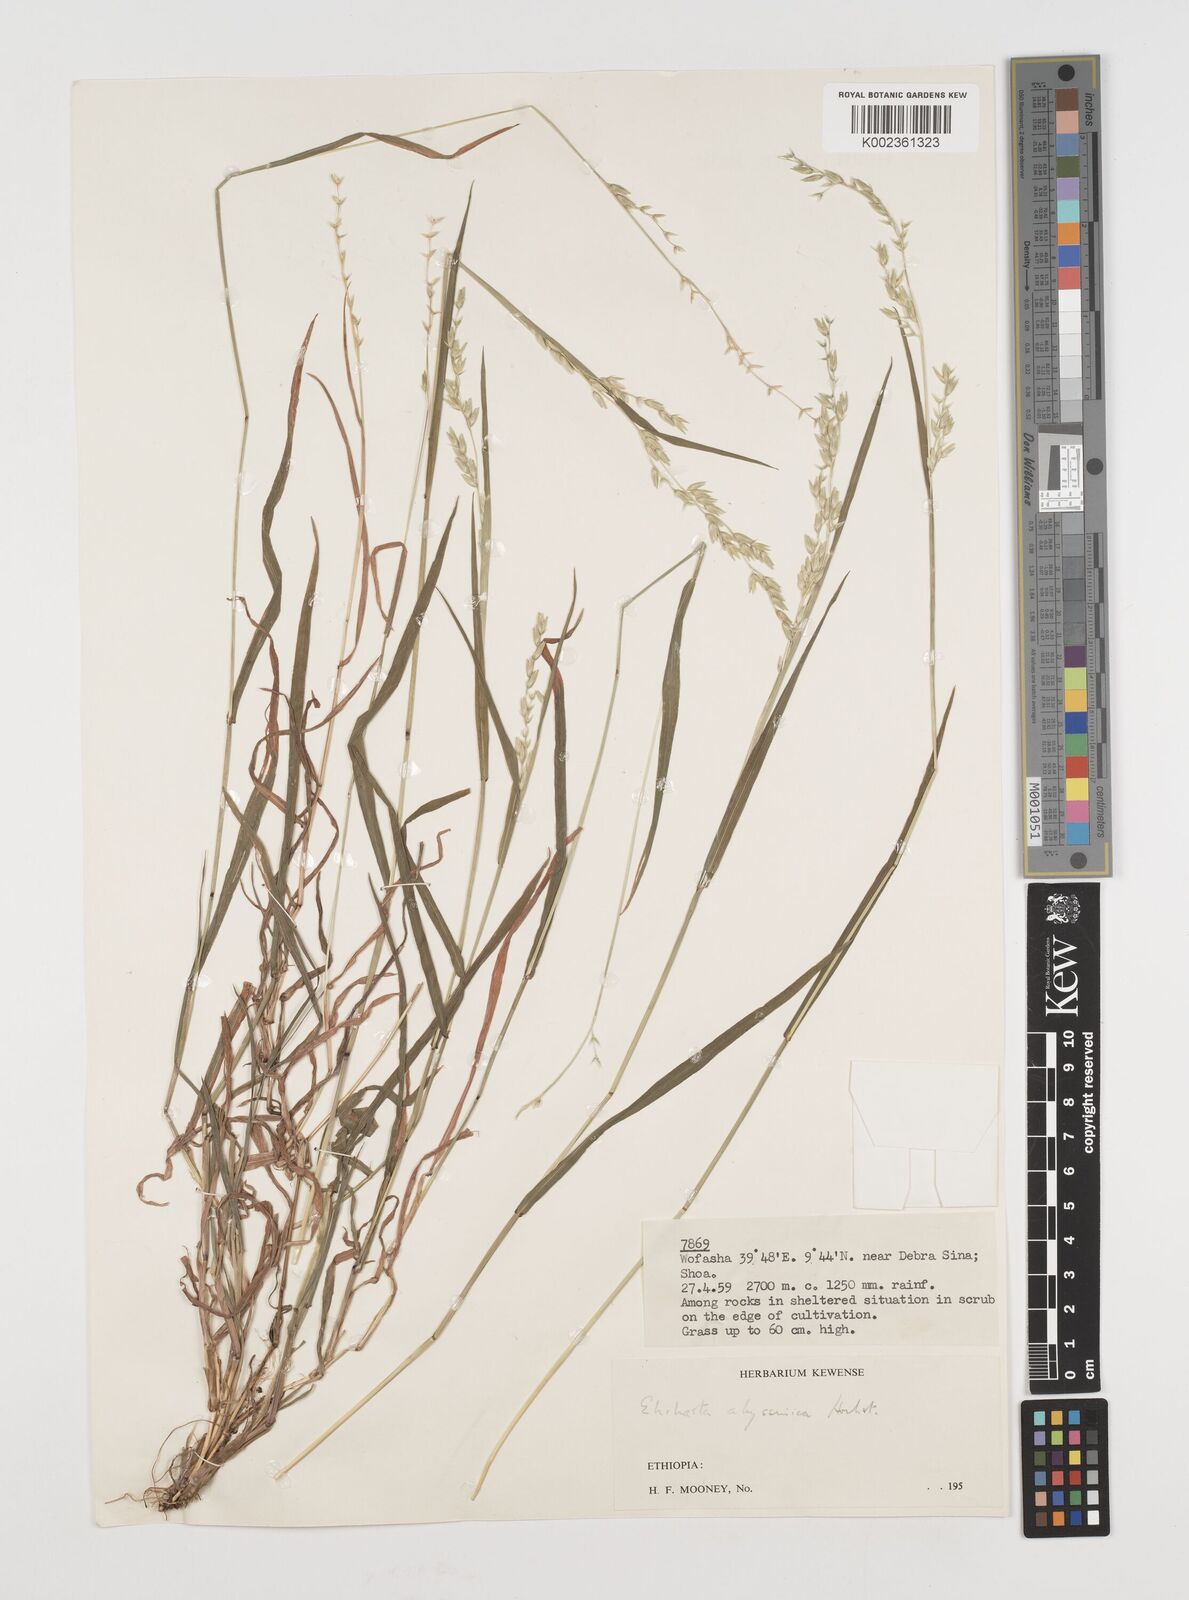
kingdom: Plantae
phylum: Tracheophyta
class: Liliopsida
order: Poales
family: Poaceae
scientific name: Poaceae
